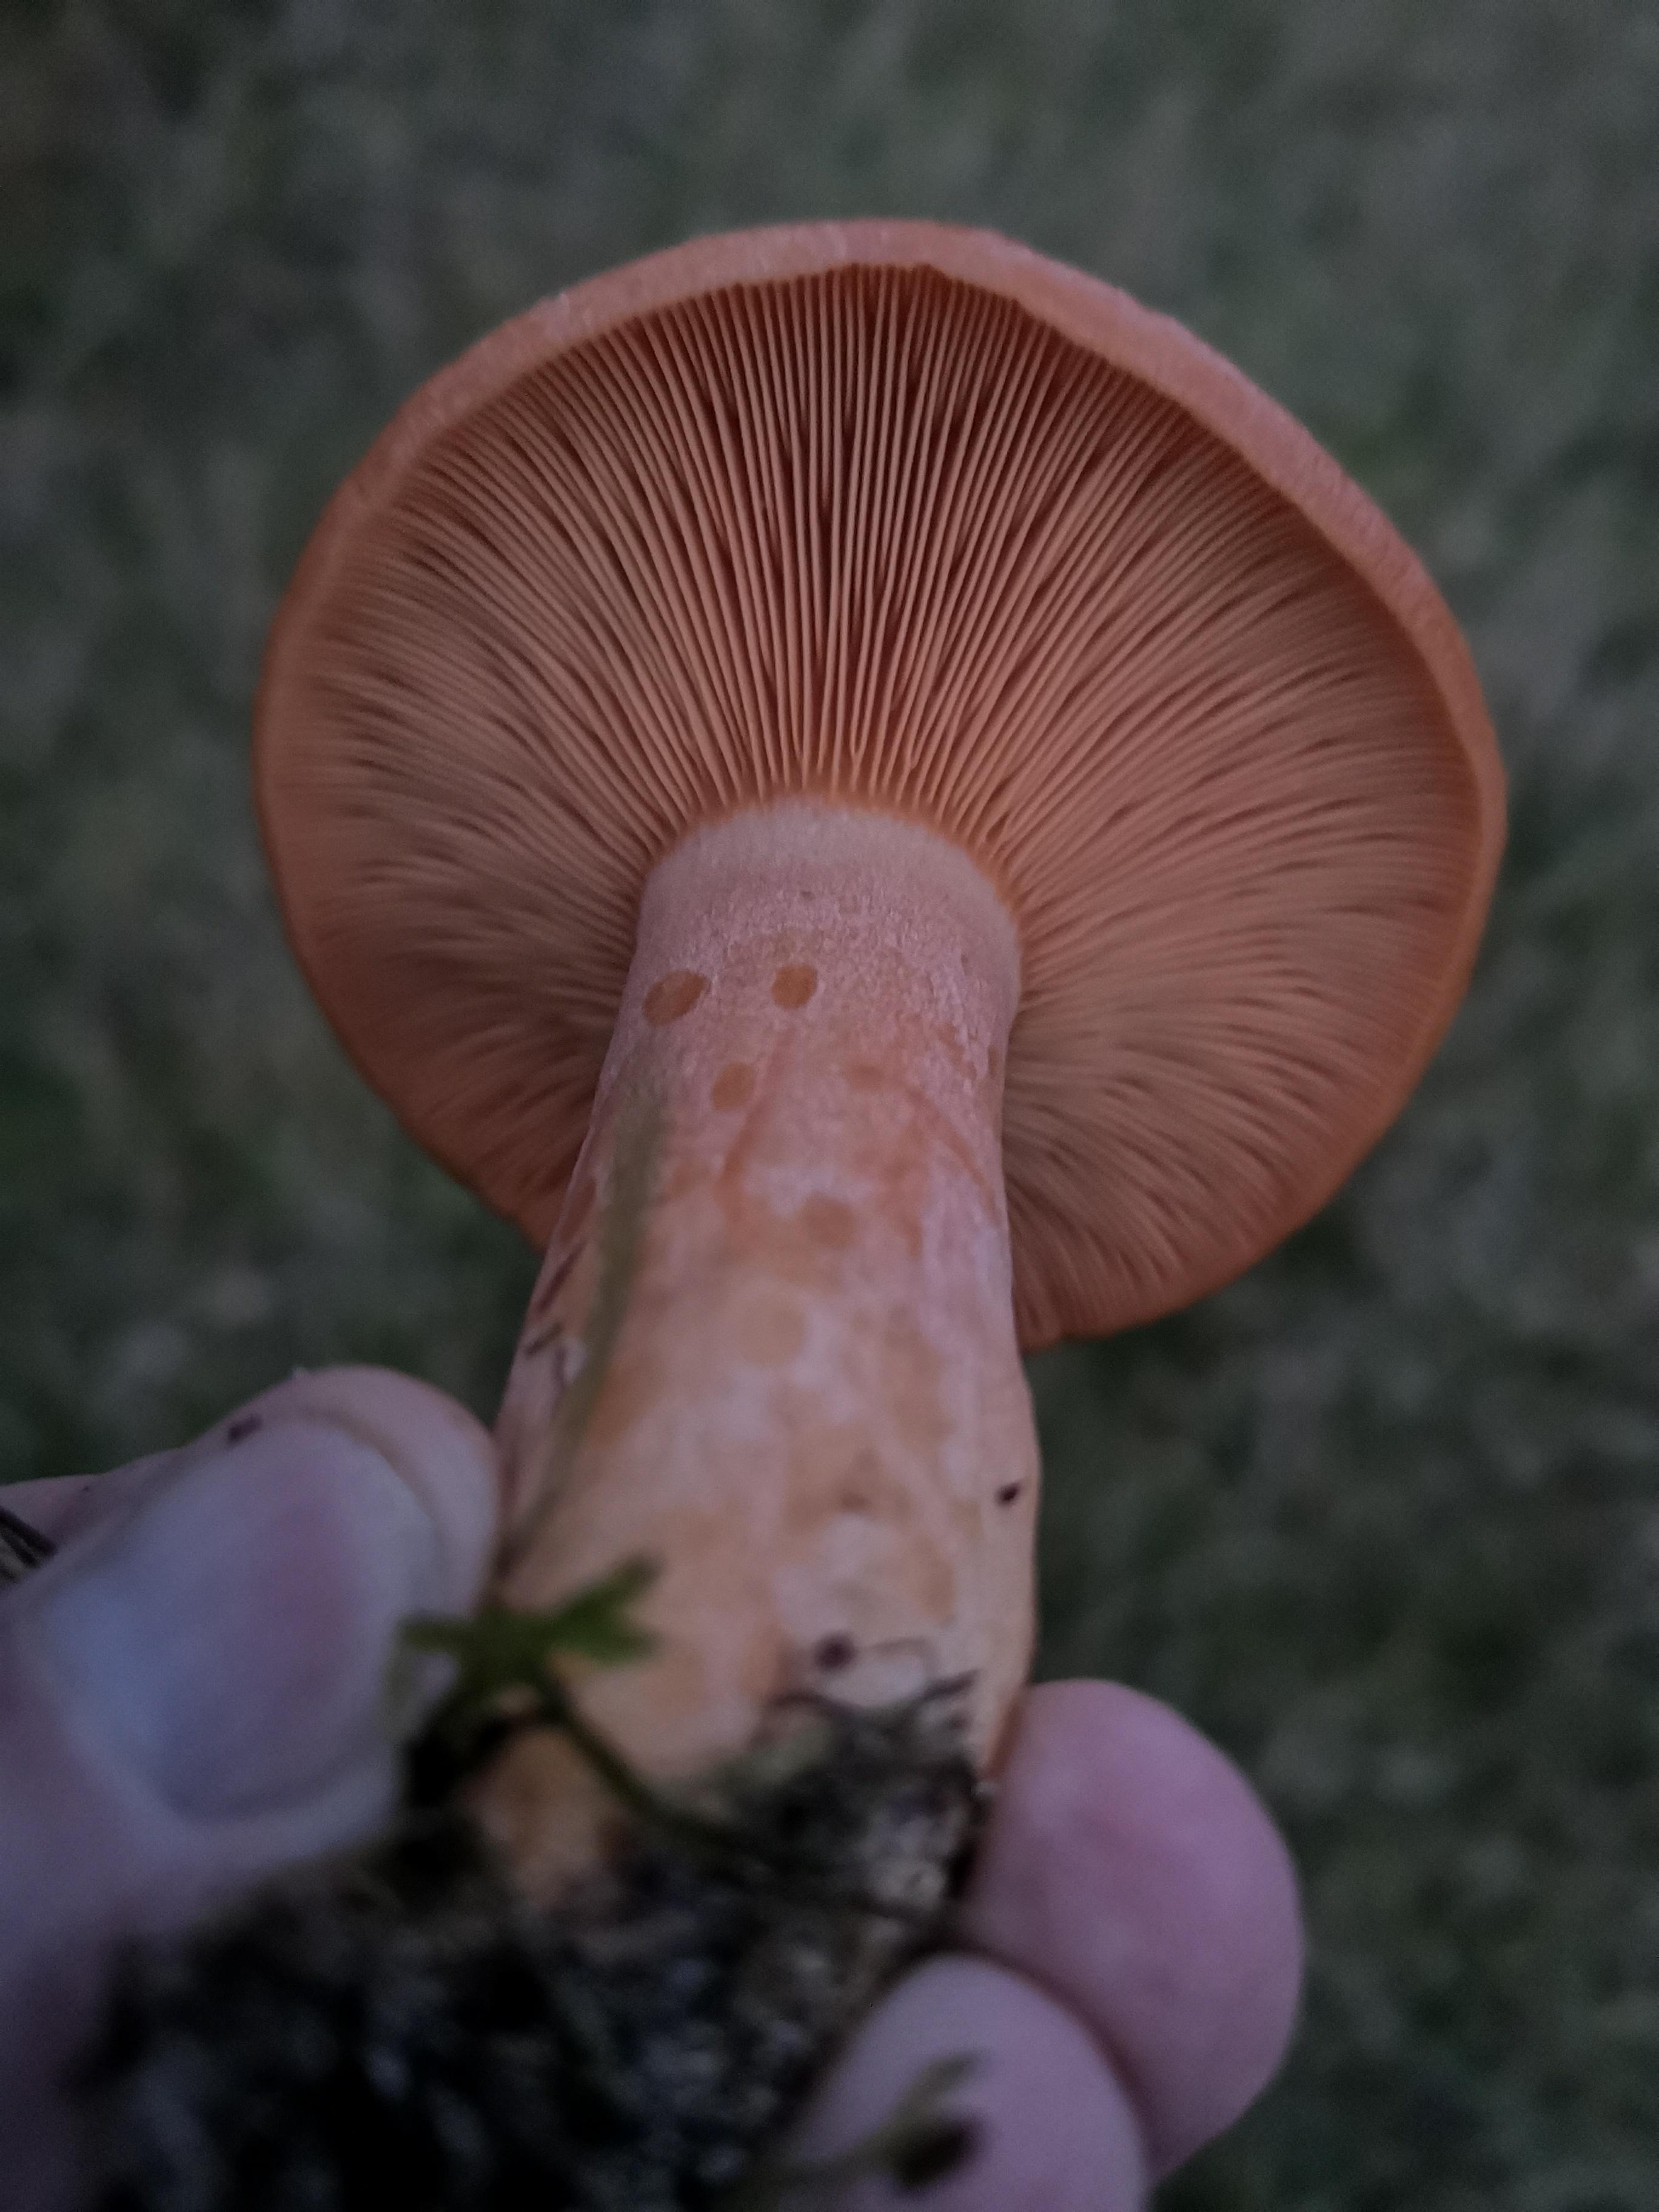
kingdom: Fungi
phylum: Basidiomycota
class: Agaricomycetes
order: Russulales
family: Russulaceae
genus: Lactarius
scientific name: Lactarius deliciosus
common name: velsmagende mælkehat
